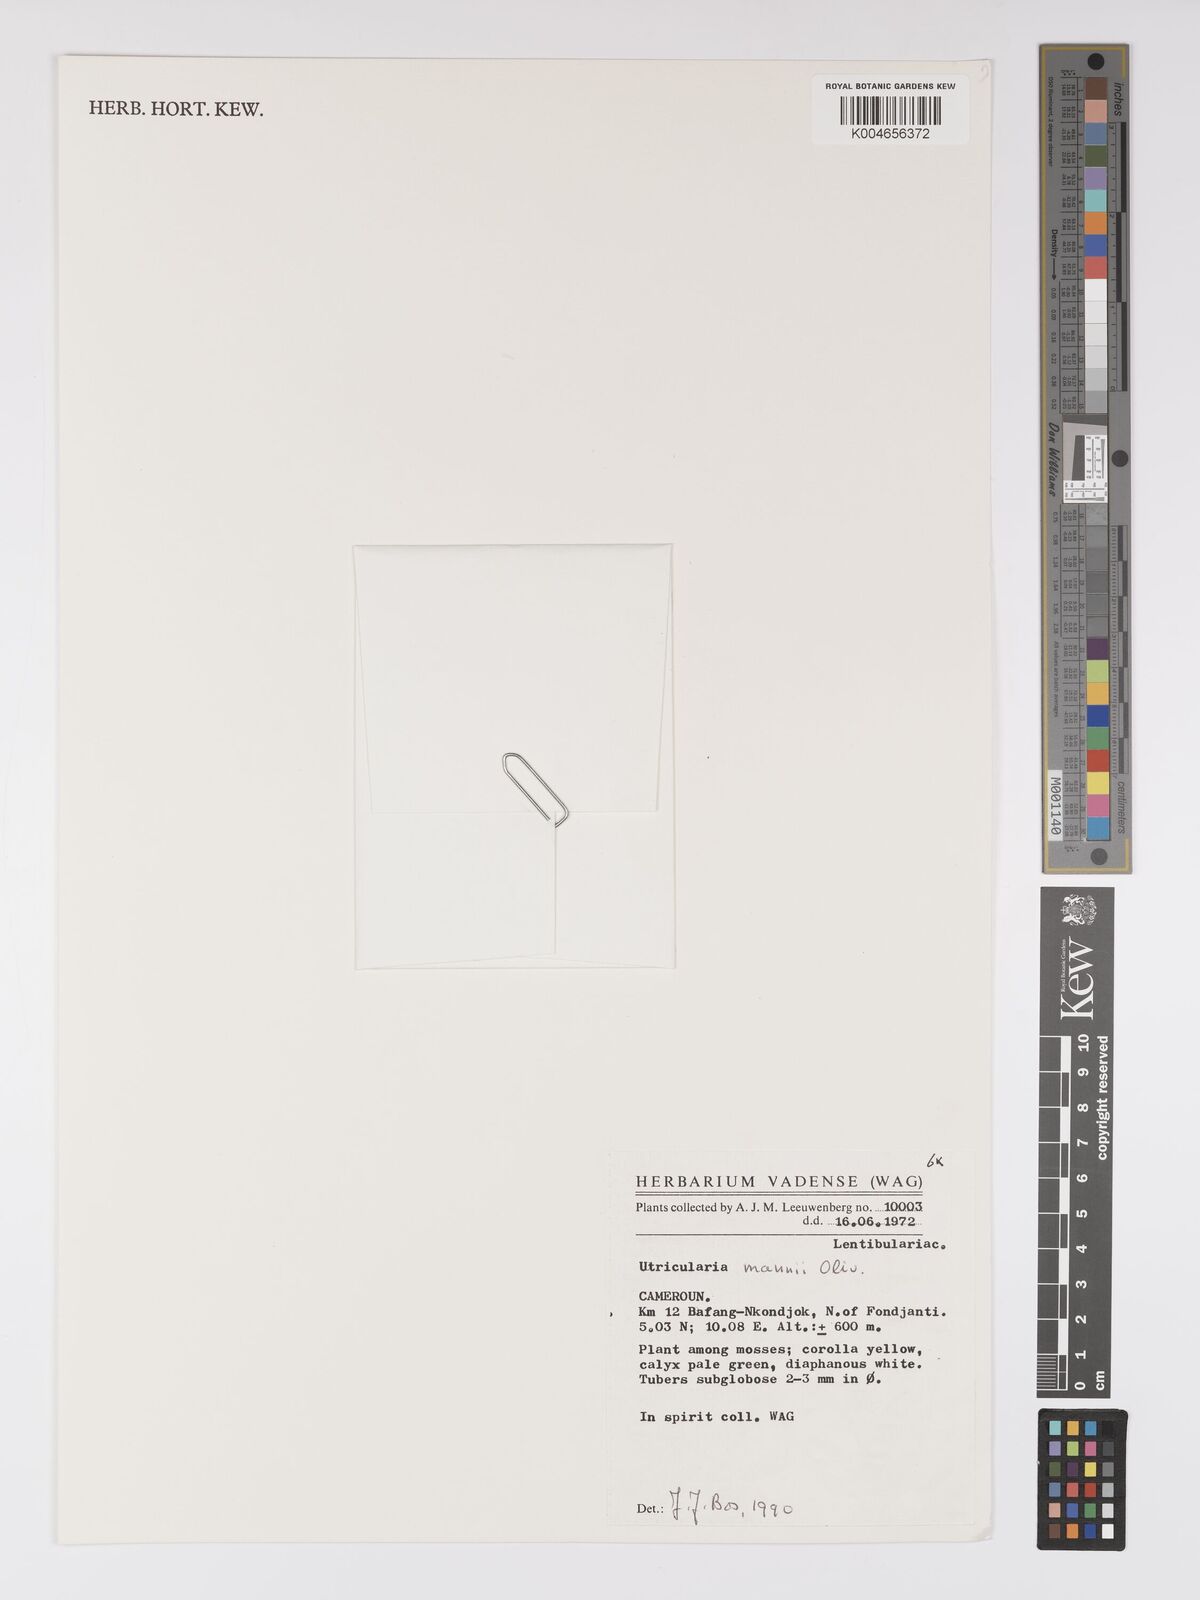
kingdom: Plantae
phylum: Tracheophyta
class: Magnoliopsida
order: Lamiales
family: Lentibulariaceae
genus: Utricularia
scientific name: Utricularia mannii
